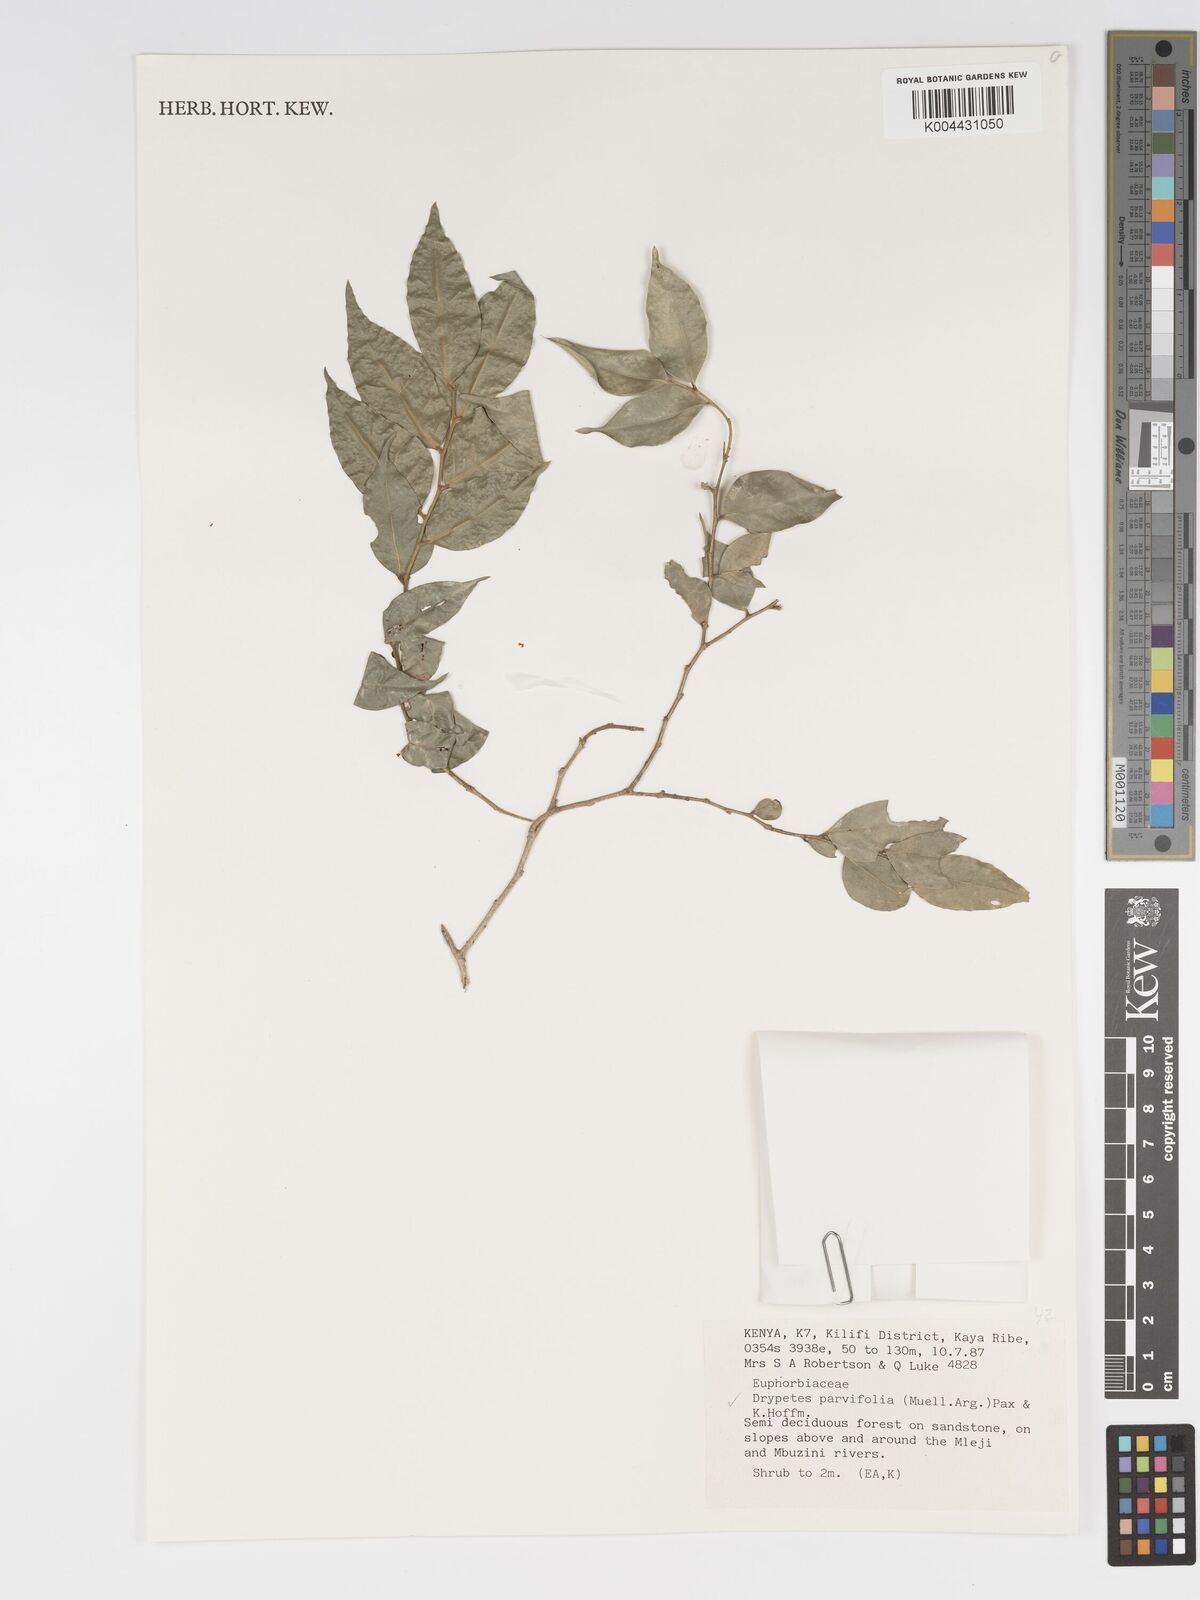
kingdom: Plantae
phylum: Tracheophyta
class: Magnoliopsida
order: Malpighiales
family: Putranjivaceae
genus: Drypetes
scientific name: Drypetes parvifolia
